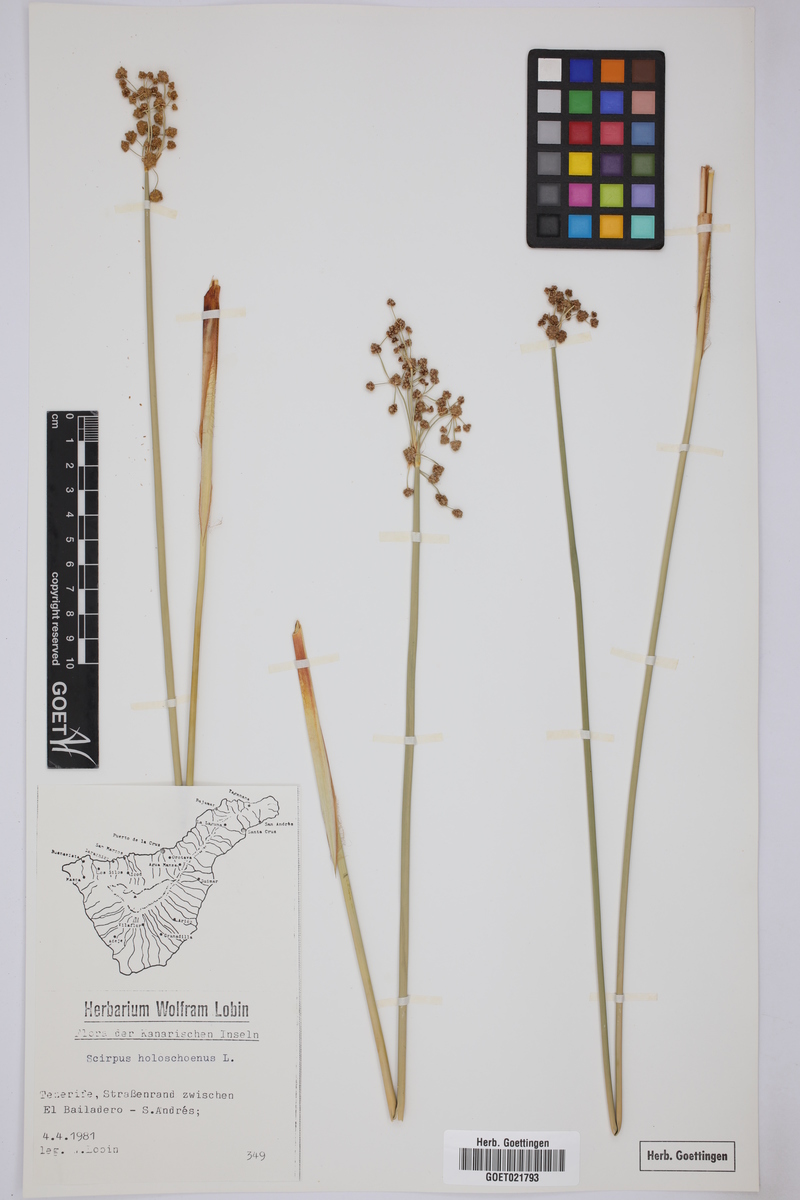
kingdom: Plantae
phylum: Tracheophyta
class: Liliopsida
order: Poales
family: Cyperaceae
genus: Scirpoides
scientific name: Scirpoides holoschoenus
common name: Round-headed club-rush
